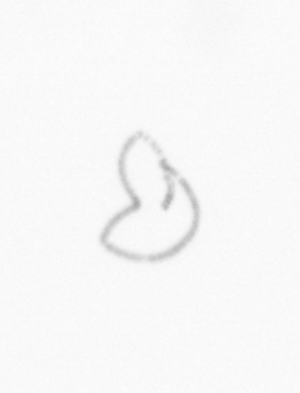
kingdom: Chromista
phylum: Ochrophyta
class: Bacillariophyceae
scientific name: Bacillariophyceae
